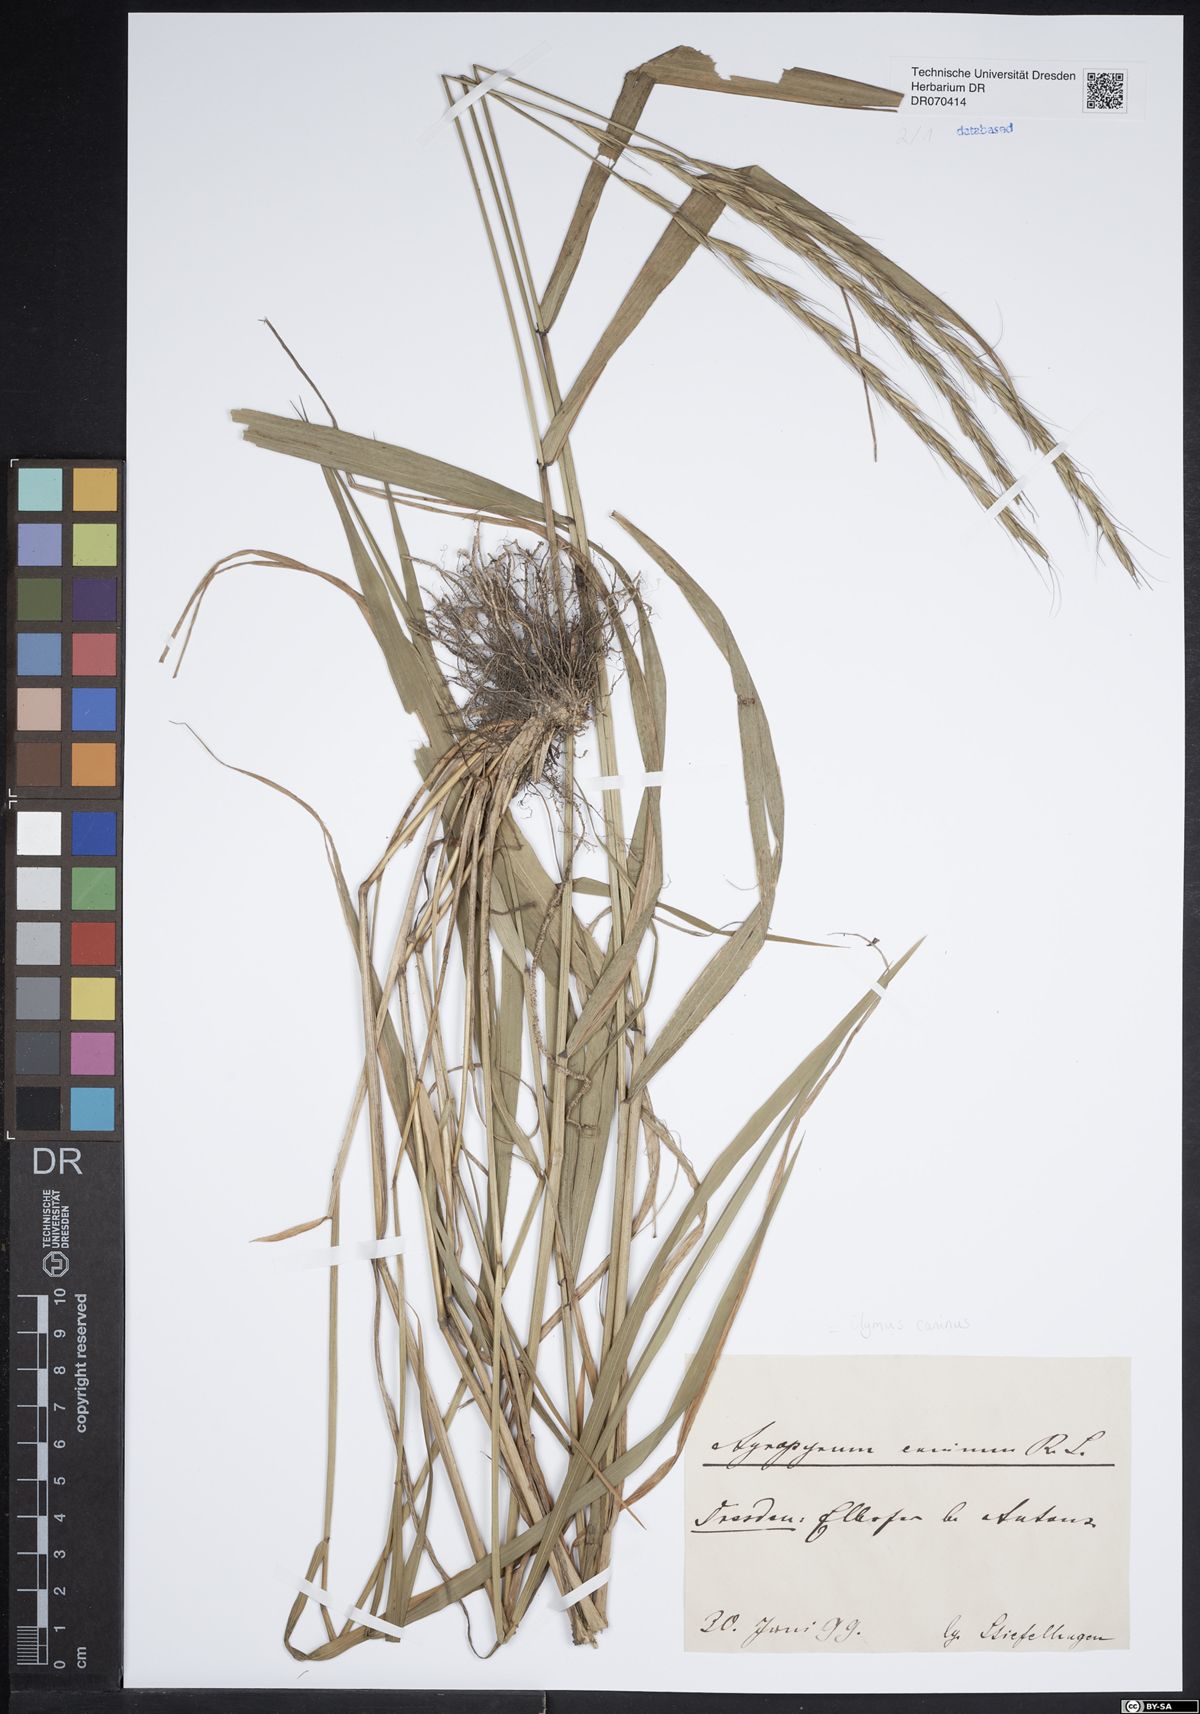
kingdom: Plantae
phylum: Tracheophyta
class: Liliopsida
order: Poales
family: Poaceae
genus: Elymus
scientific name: Elymus caninus
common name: Bearded couch
